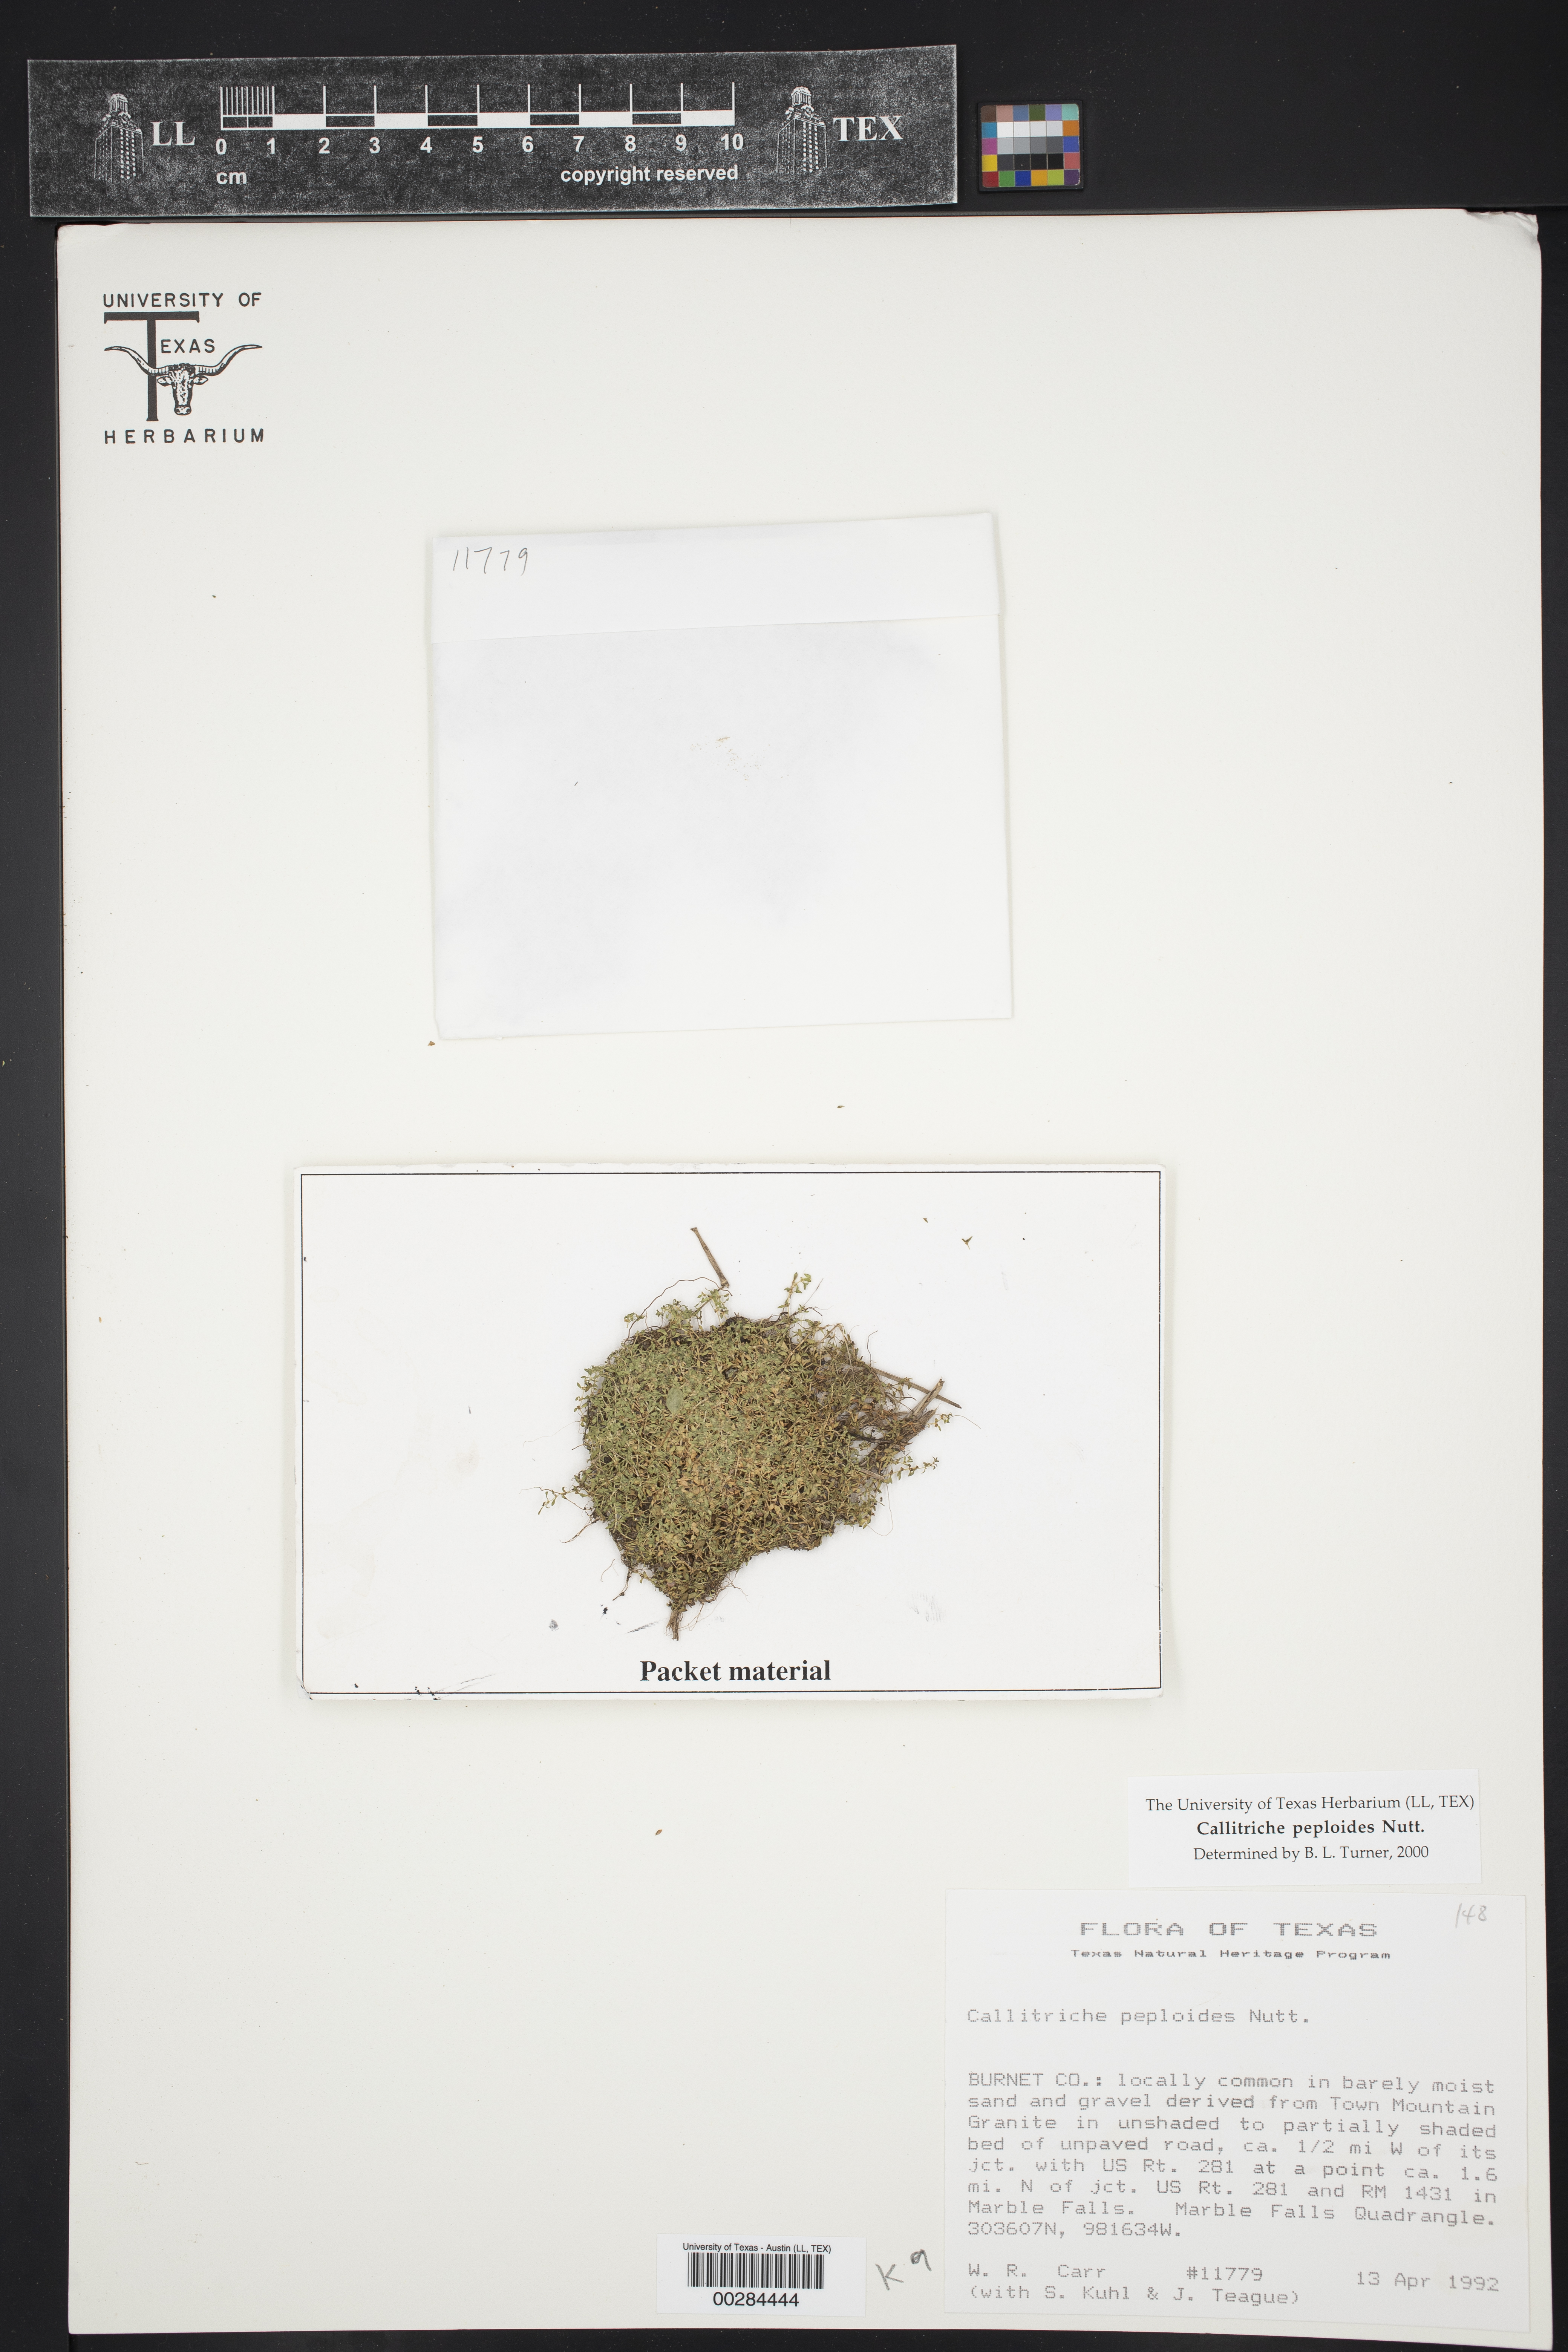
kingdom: Plantae
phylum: Tracheophyta
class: Magnoliopsida
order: Lamiales
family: Plantaginaceae
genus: Callitriche
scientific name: Callitriche peploides
